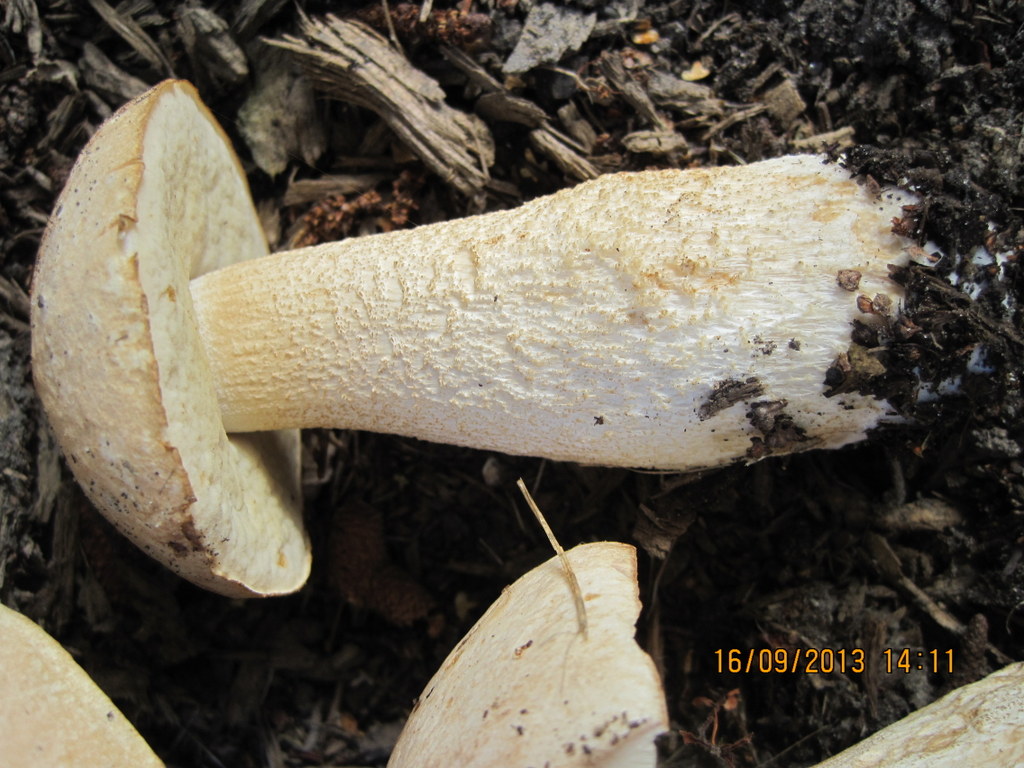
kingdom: Fungi
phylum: Basidiomycota
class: Agaricomycetes
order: Boletales
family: Boletaceae
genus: Leccinum
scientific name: Leccinum
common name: skælrørhat
